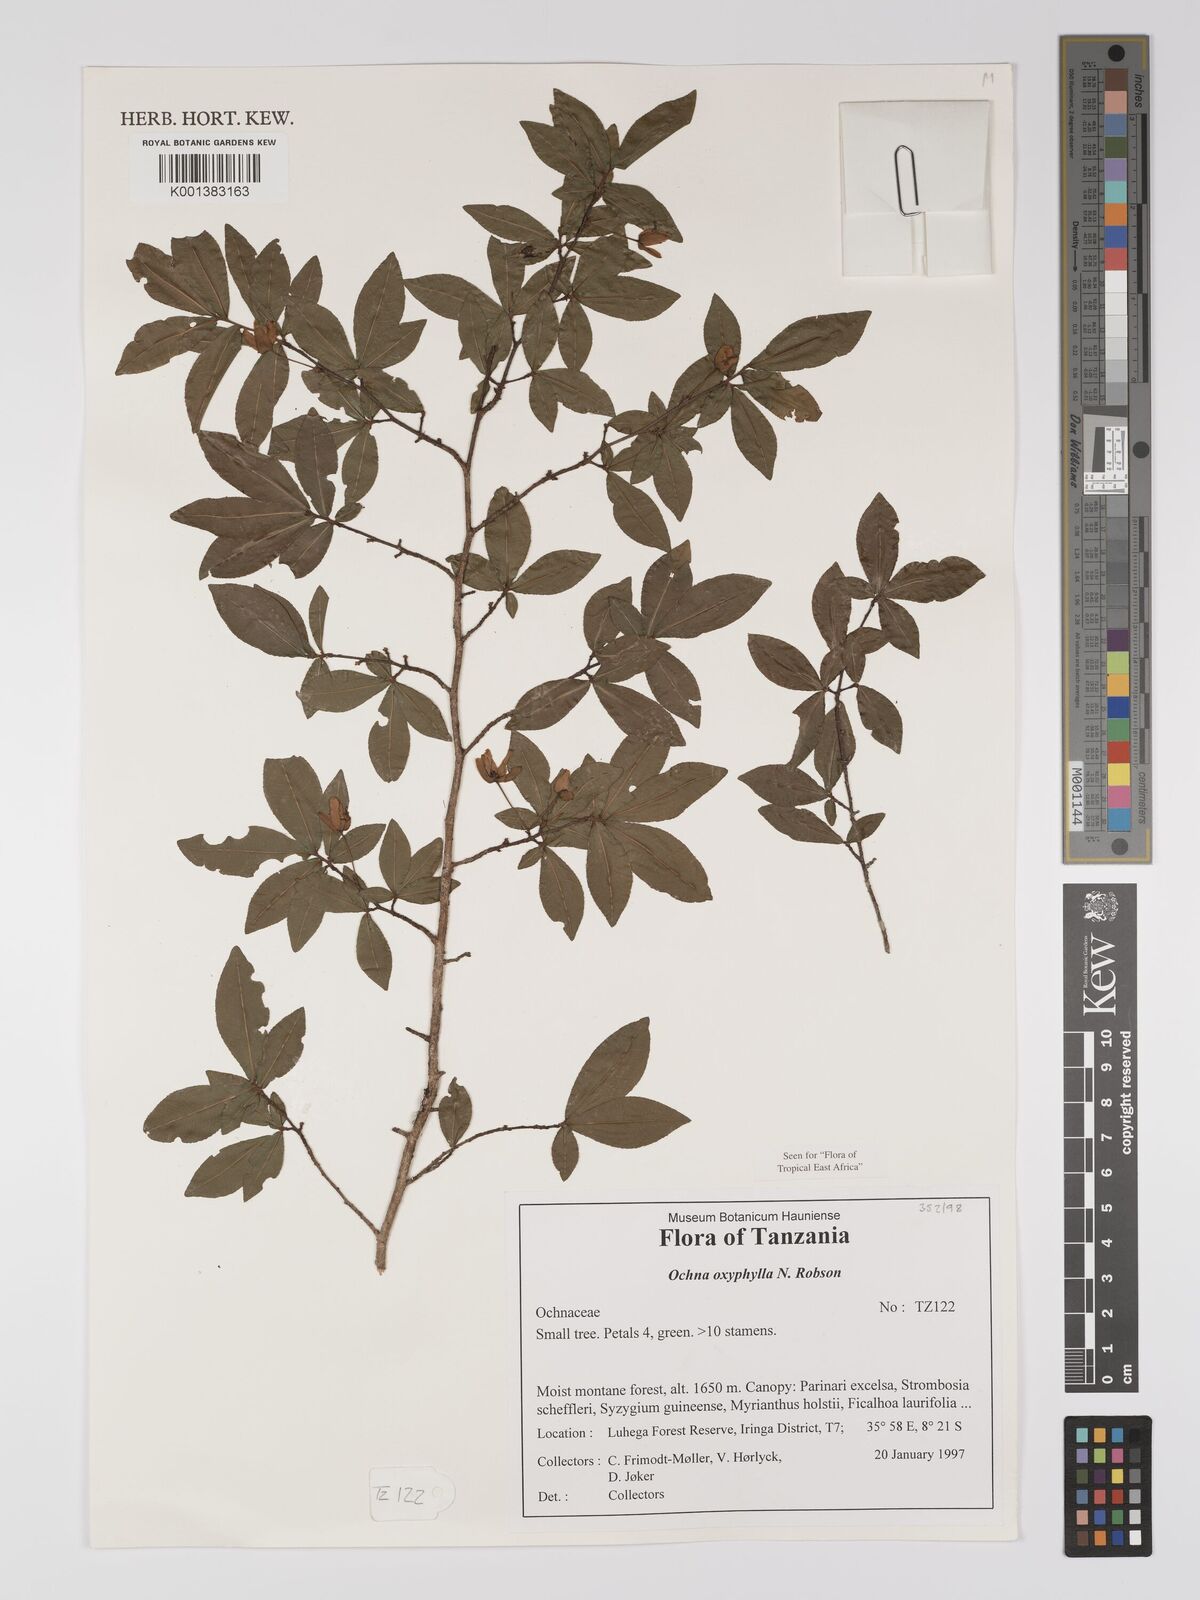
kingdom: Plantae
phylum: Tracheophyta
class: Magnoliopsida
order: Malpighiales
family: Ochnaceae
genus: Ochna
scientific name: Ochna oxyphylla
